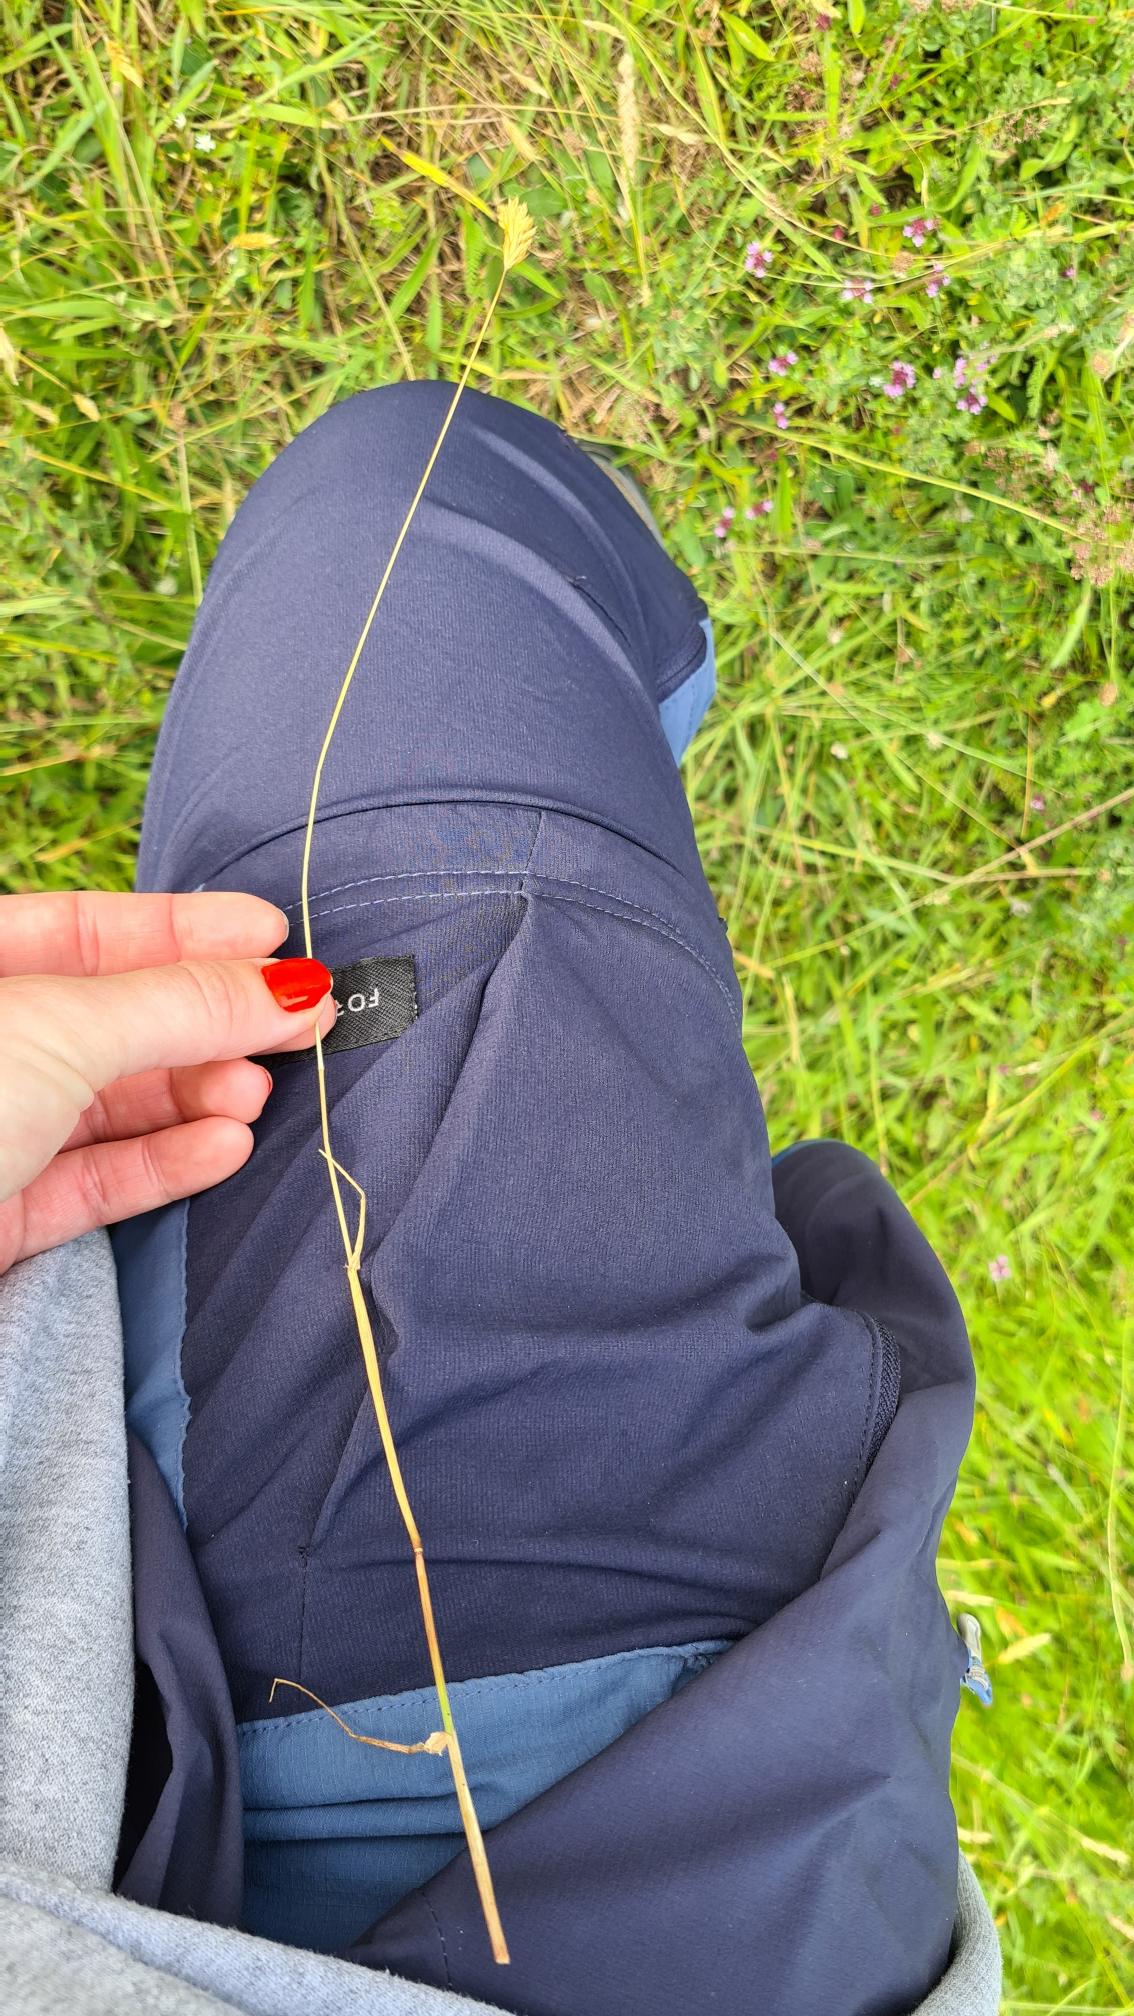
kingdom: Plantae
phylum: Tracheophyta
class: Liliopsida
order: Poales
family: Poaceae
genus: Anthoxanthum
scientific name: Anthoxanthum odoratum
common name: Vellugtende gulaks
